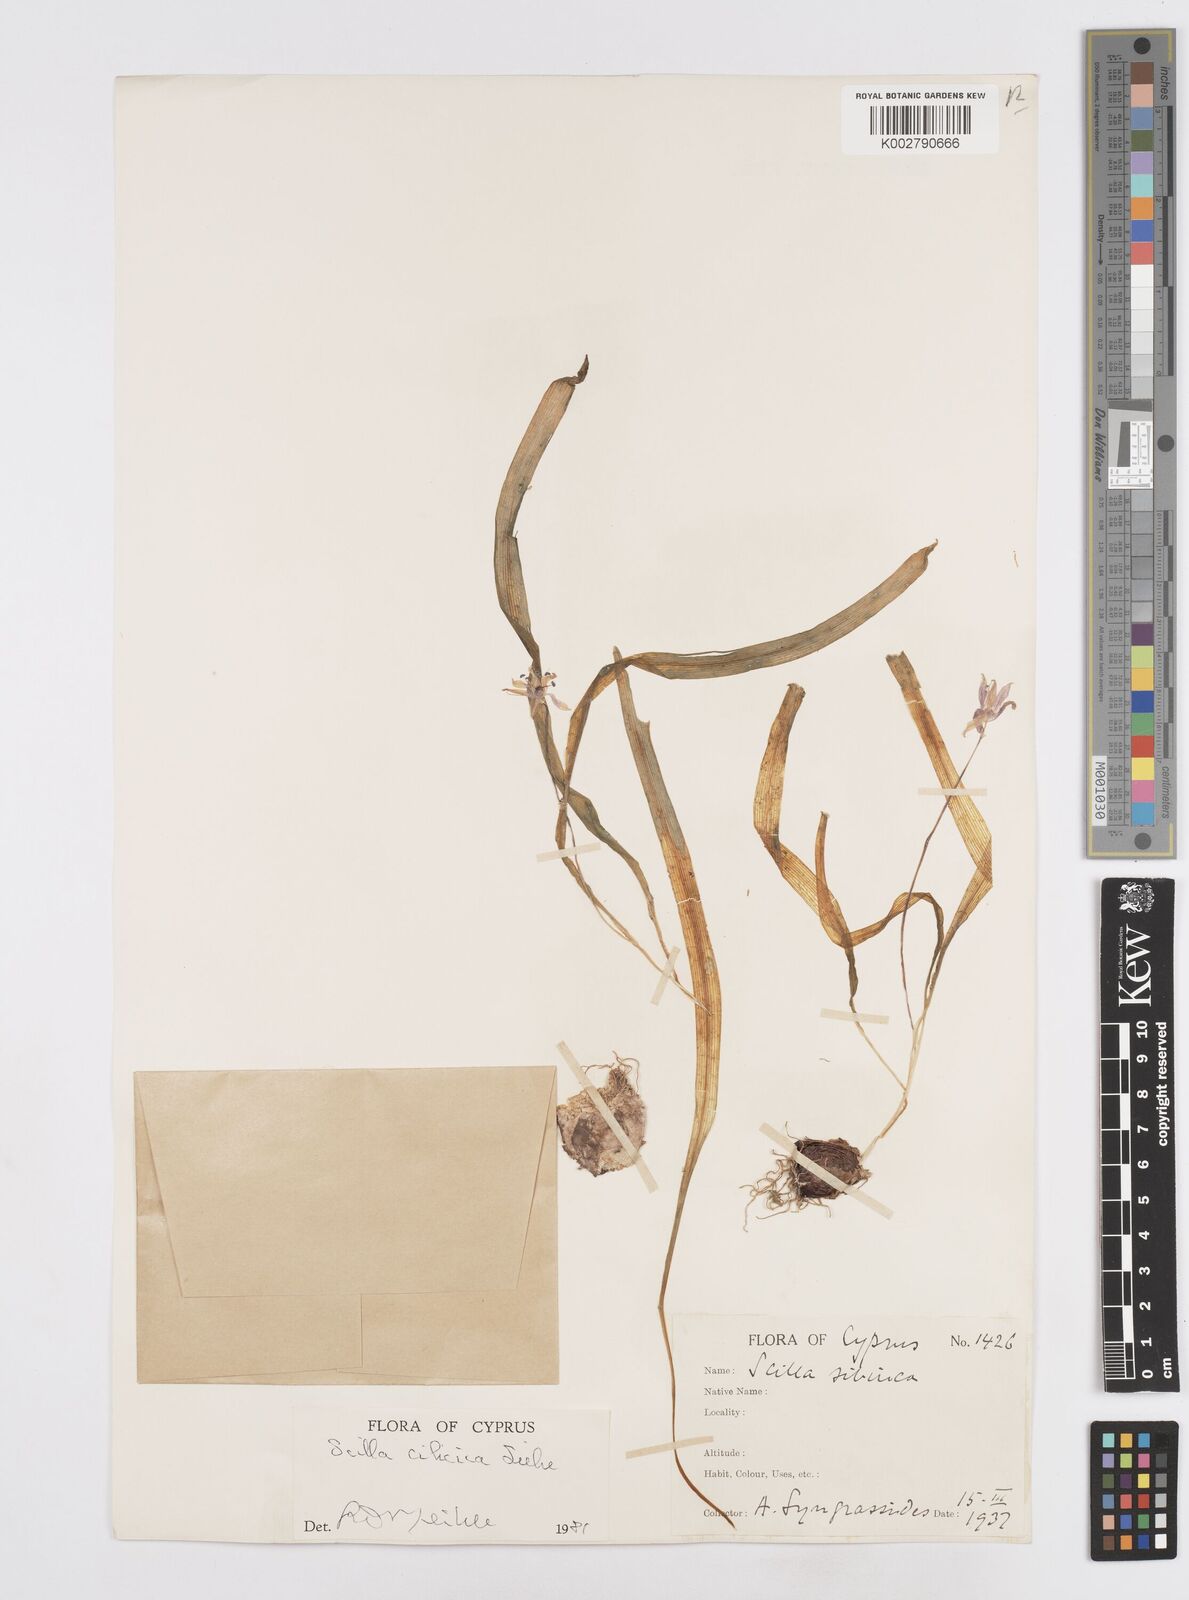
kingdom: Plantae
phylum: Tracheophyta
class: Liliopsida
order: Asparagales
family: Asparagaceae
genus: Scilla
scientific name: Scilla siberica
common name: Siberian squill
